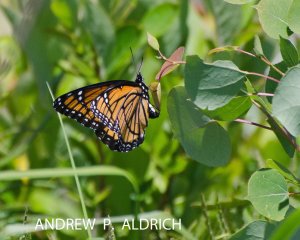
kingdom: Animalia
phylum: Arthropoda
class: Insecta
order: Lepidoptera
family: Nymphalidae
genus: Limenitis
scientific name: Limenitis archippus
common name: Viceroy
